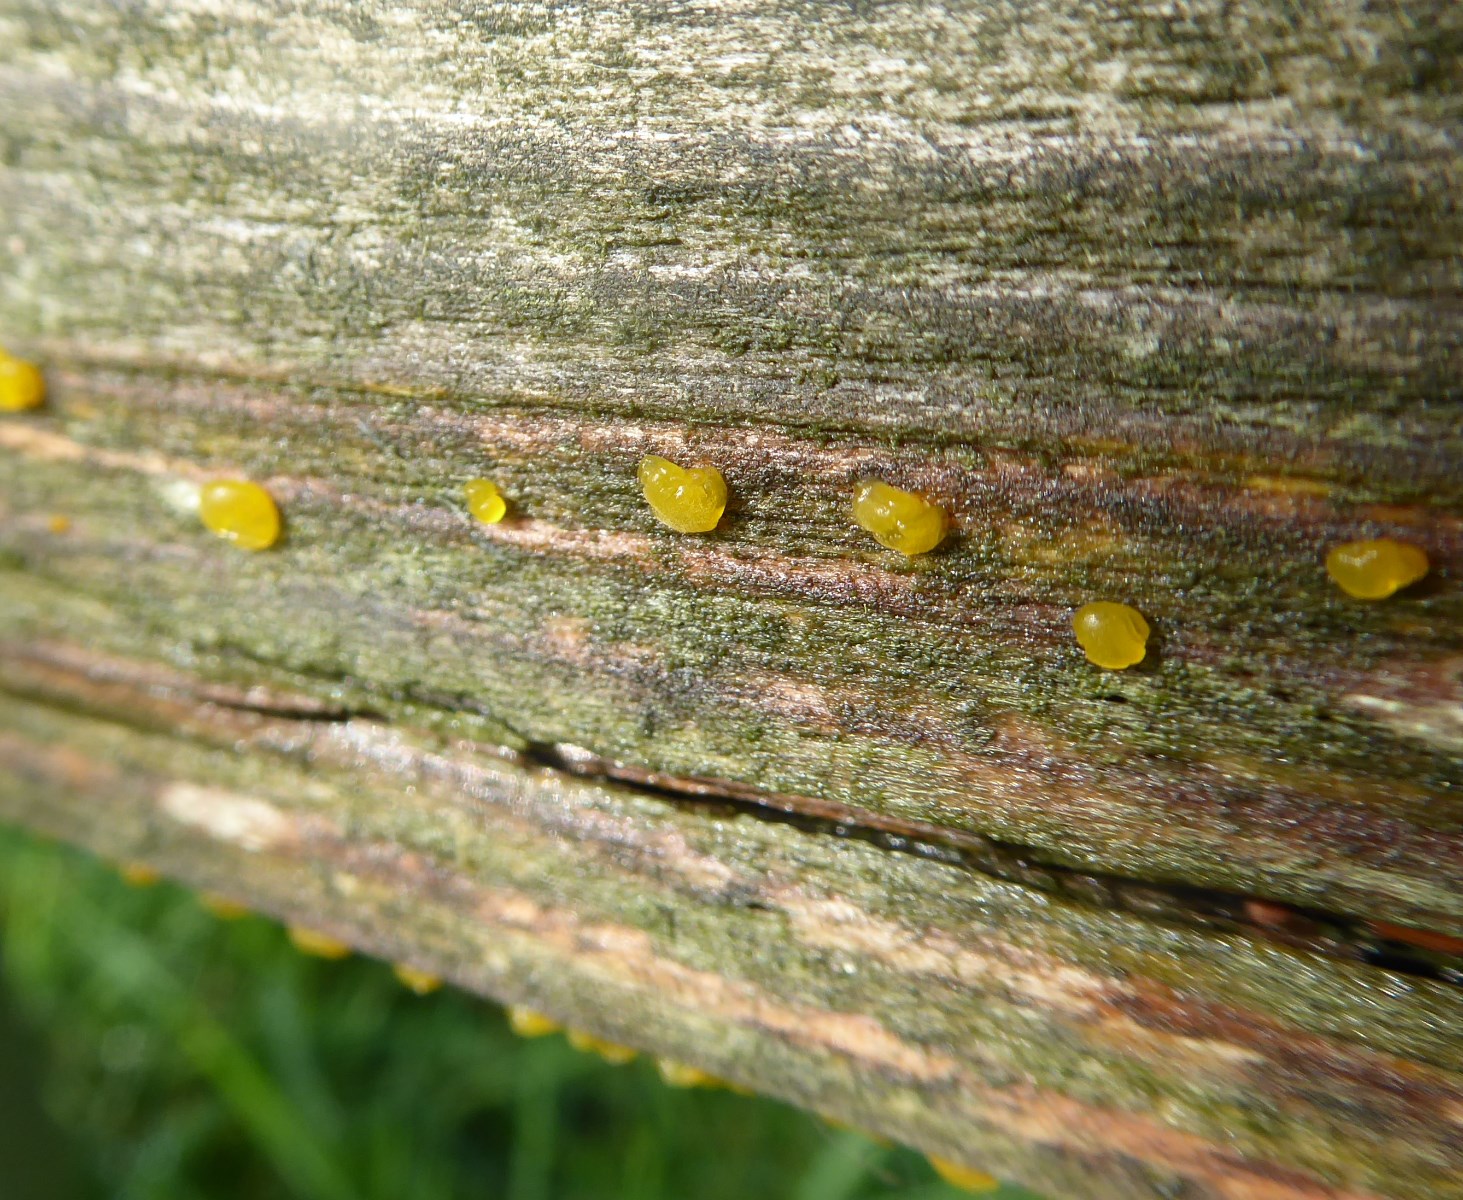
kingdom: Fungi
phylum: Basidiomycota
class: Dacrymycetes
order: Dacrymycetales
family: Dacrymycetaceae
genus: Dacrymyces
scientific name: Dacrymyces
